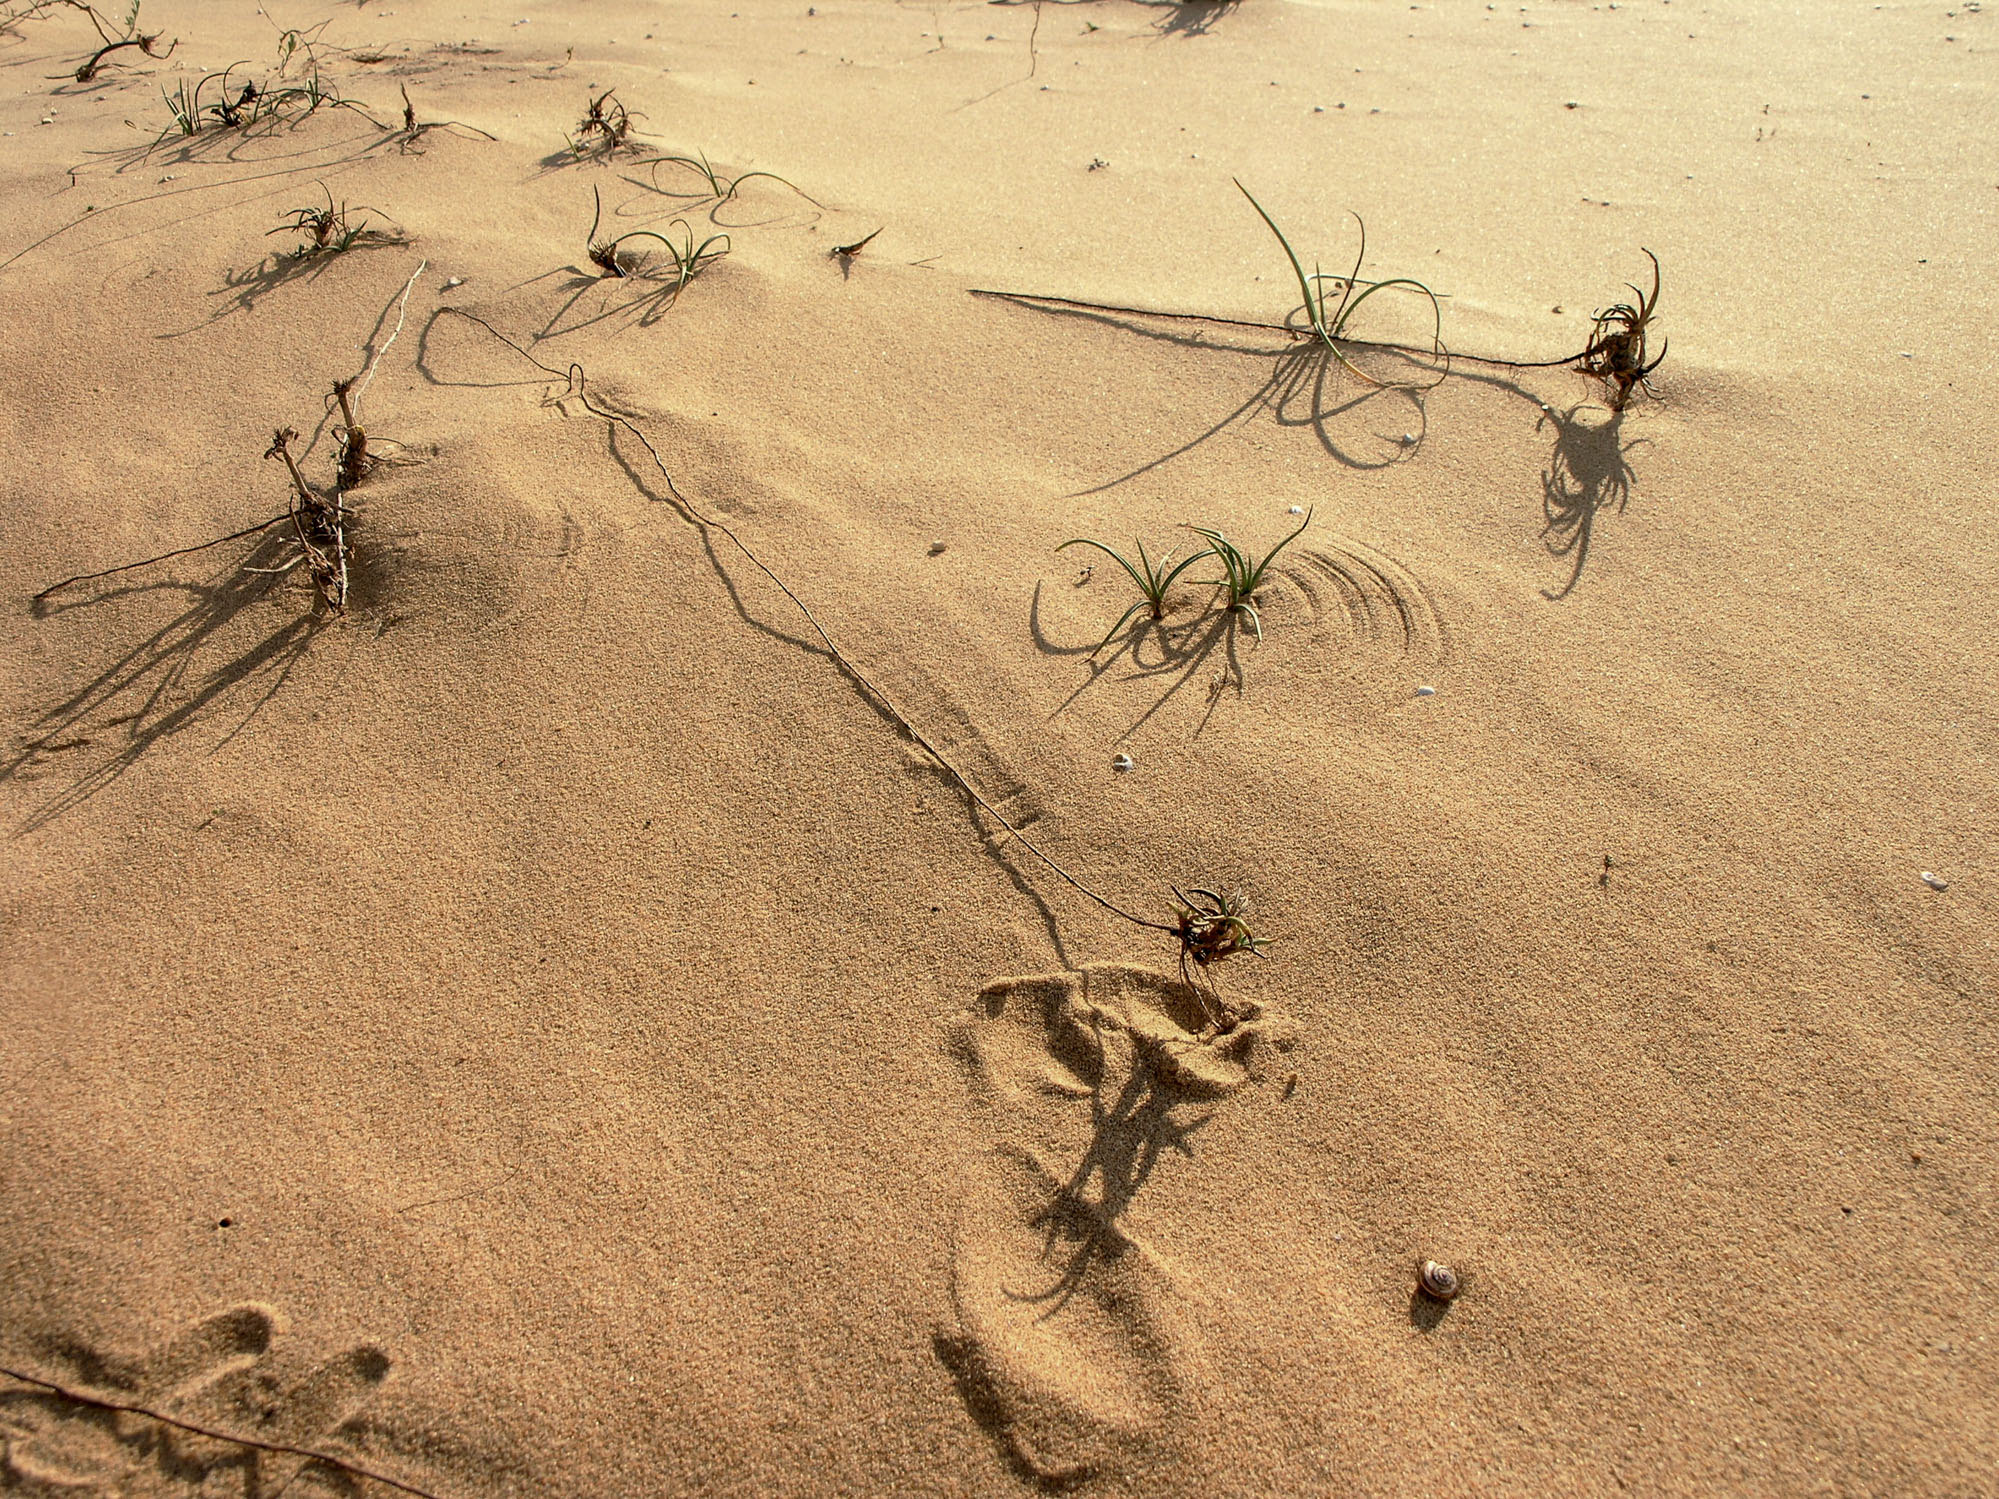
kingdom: Plantae
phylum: Tracheophyta
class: Liliopsida
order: Poales
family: Cyperaceae
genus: Cyperus
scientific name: Cyperus capitatus
